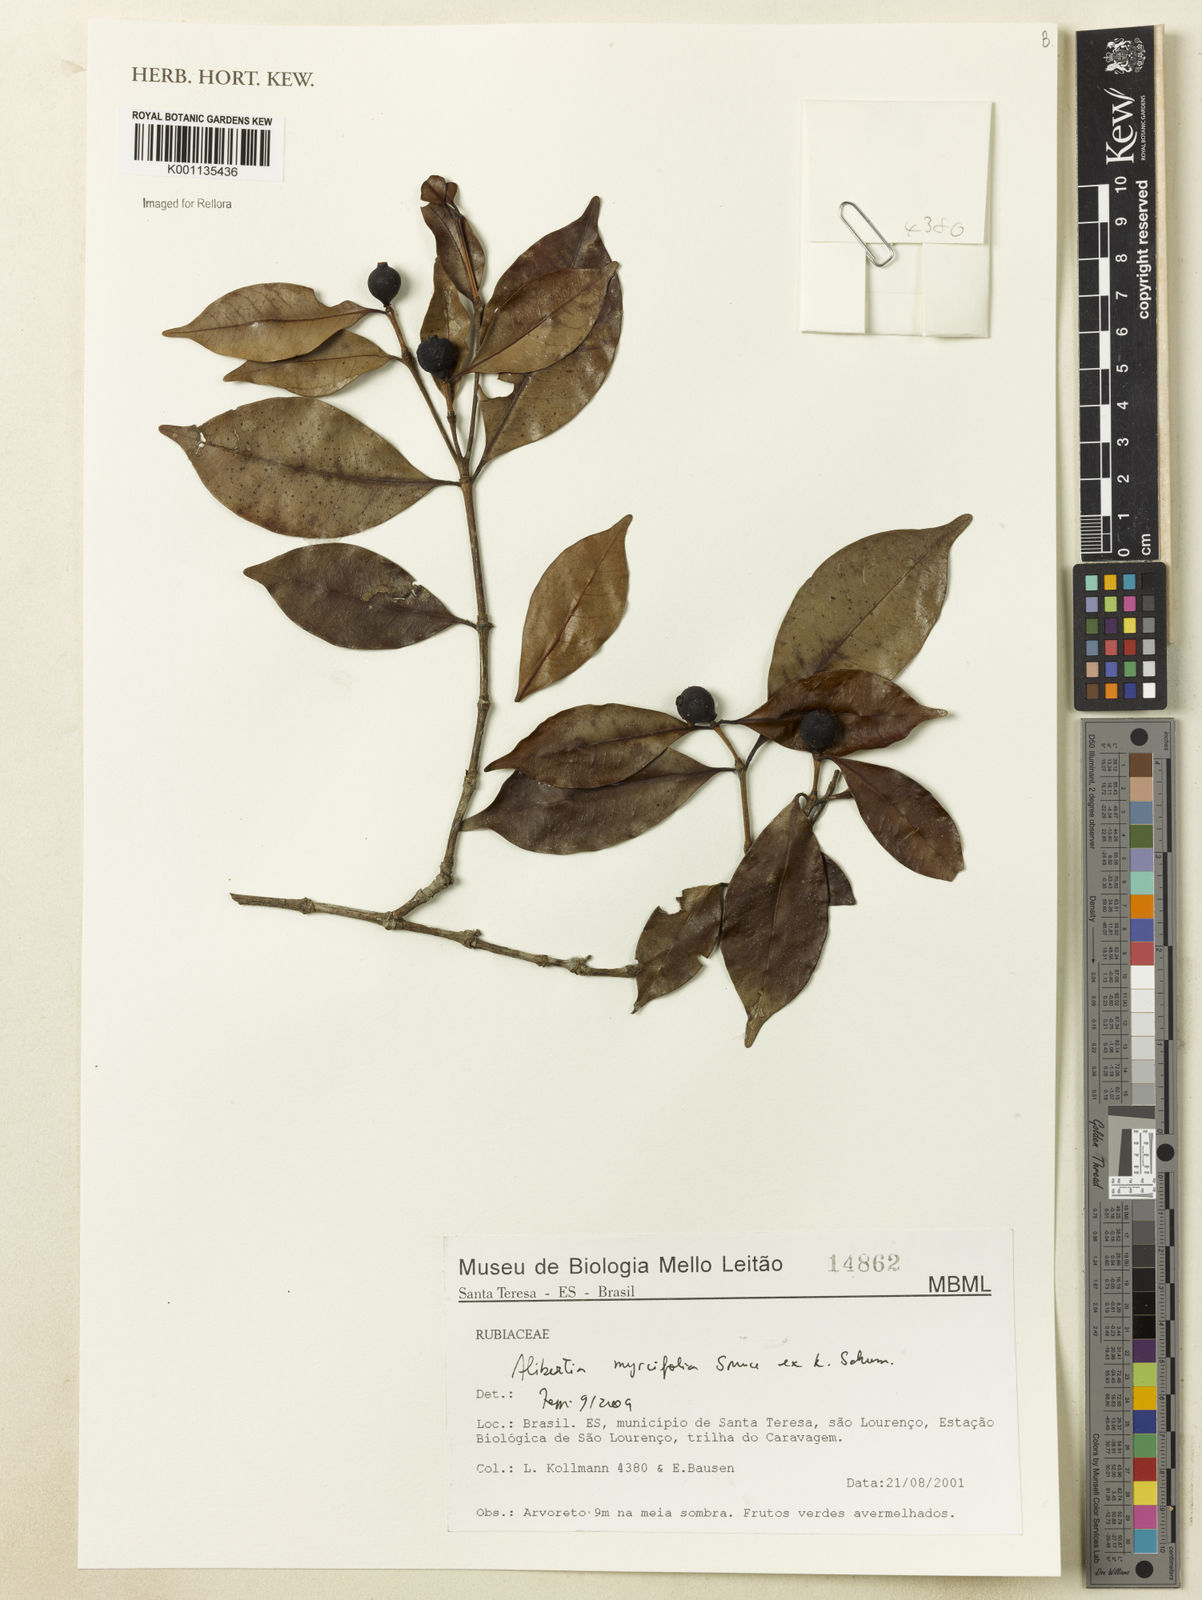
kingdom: Plantae
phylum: Tracheophyta
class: Magnoliopsida
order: Gentianales
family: Rubiaceae
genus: Cordiera
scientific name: Cordiera myrciifolia
